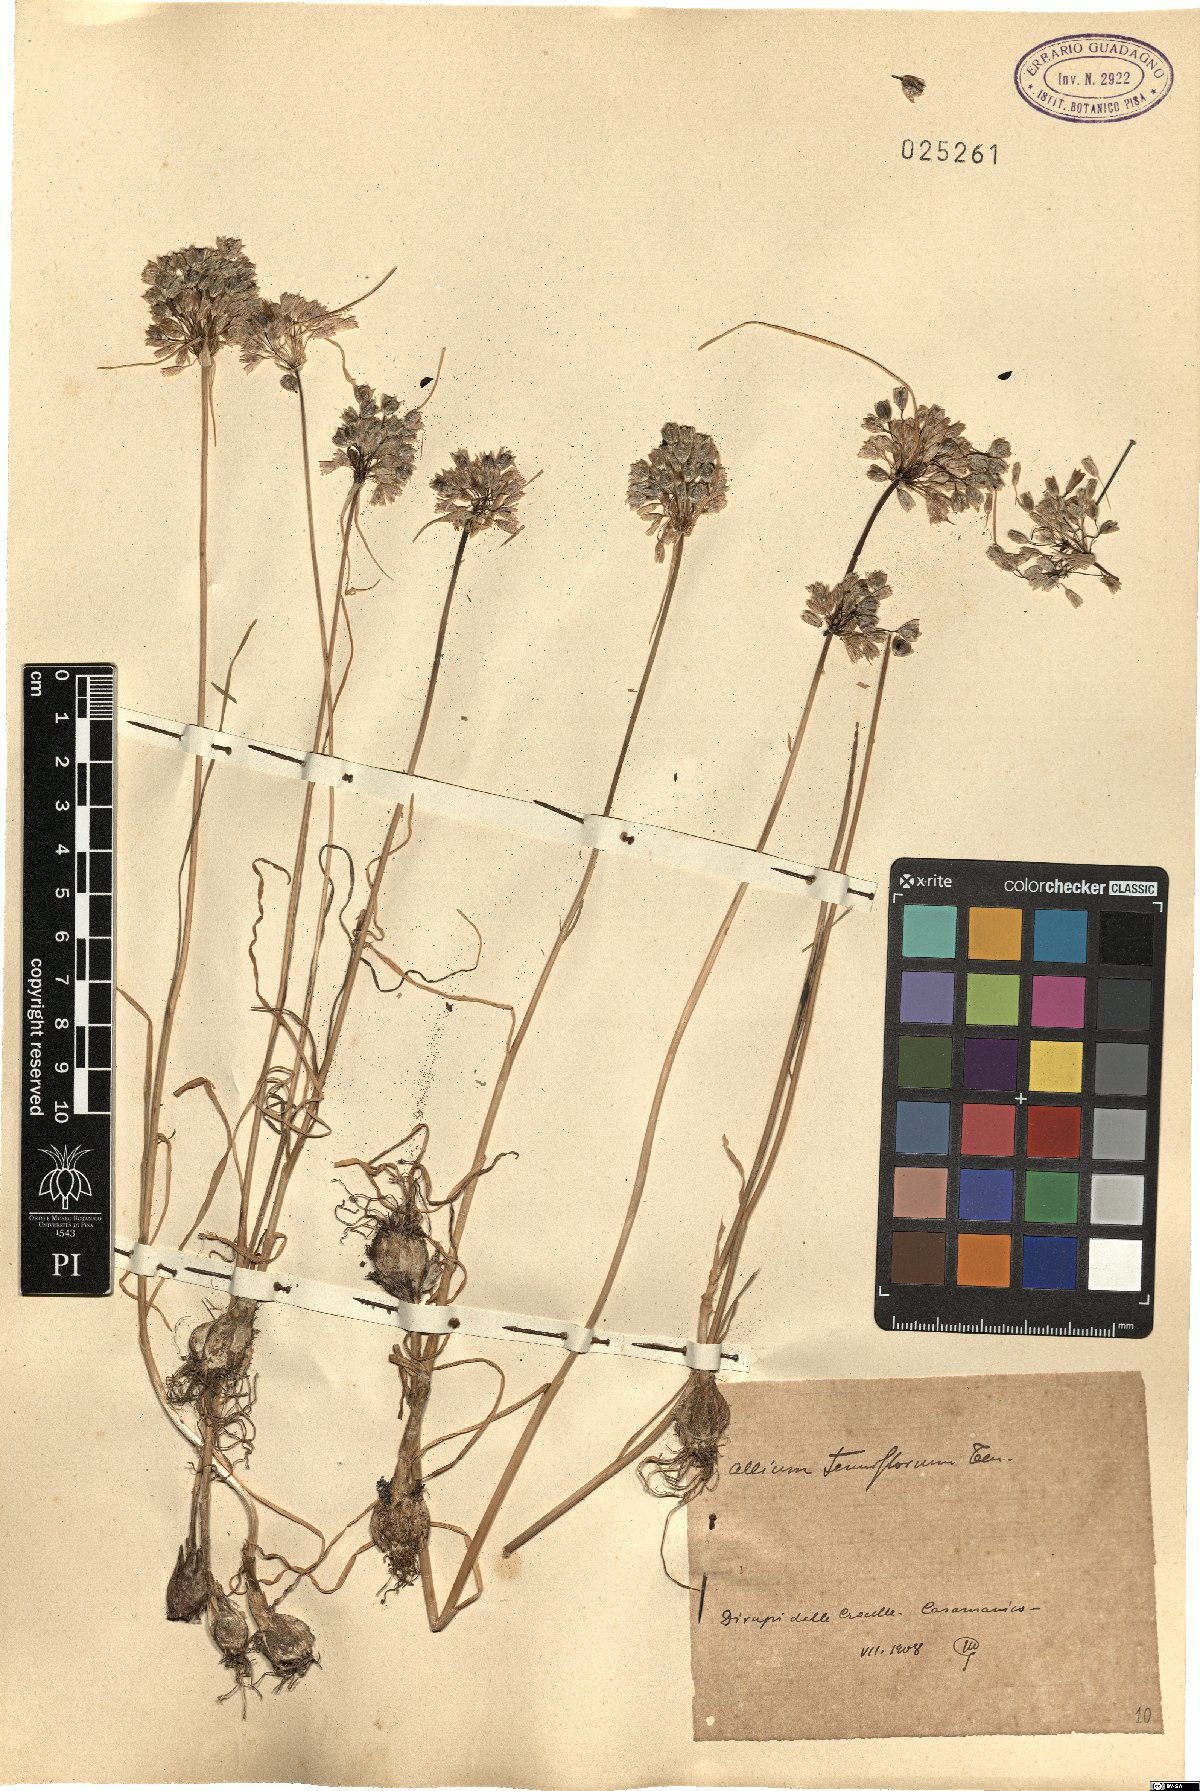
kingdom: Plantae
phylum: Tracheophyta
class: Liliopsida
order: Asparagales
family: Amaryllidaceae
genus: Allium
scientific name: Allium tenuiflorum
